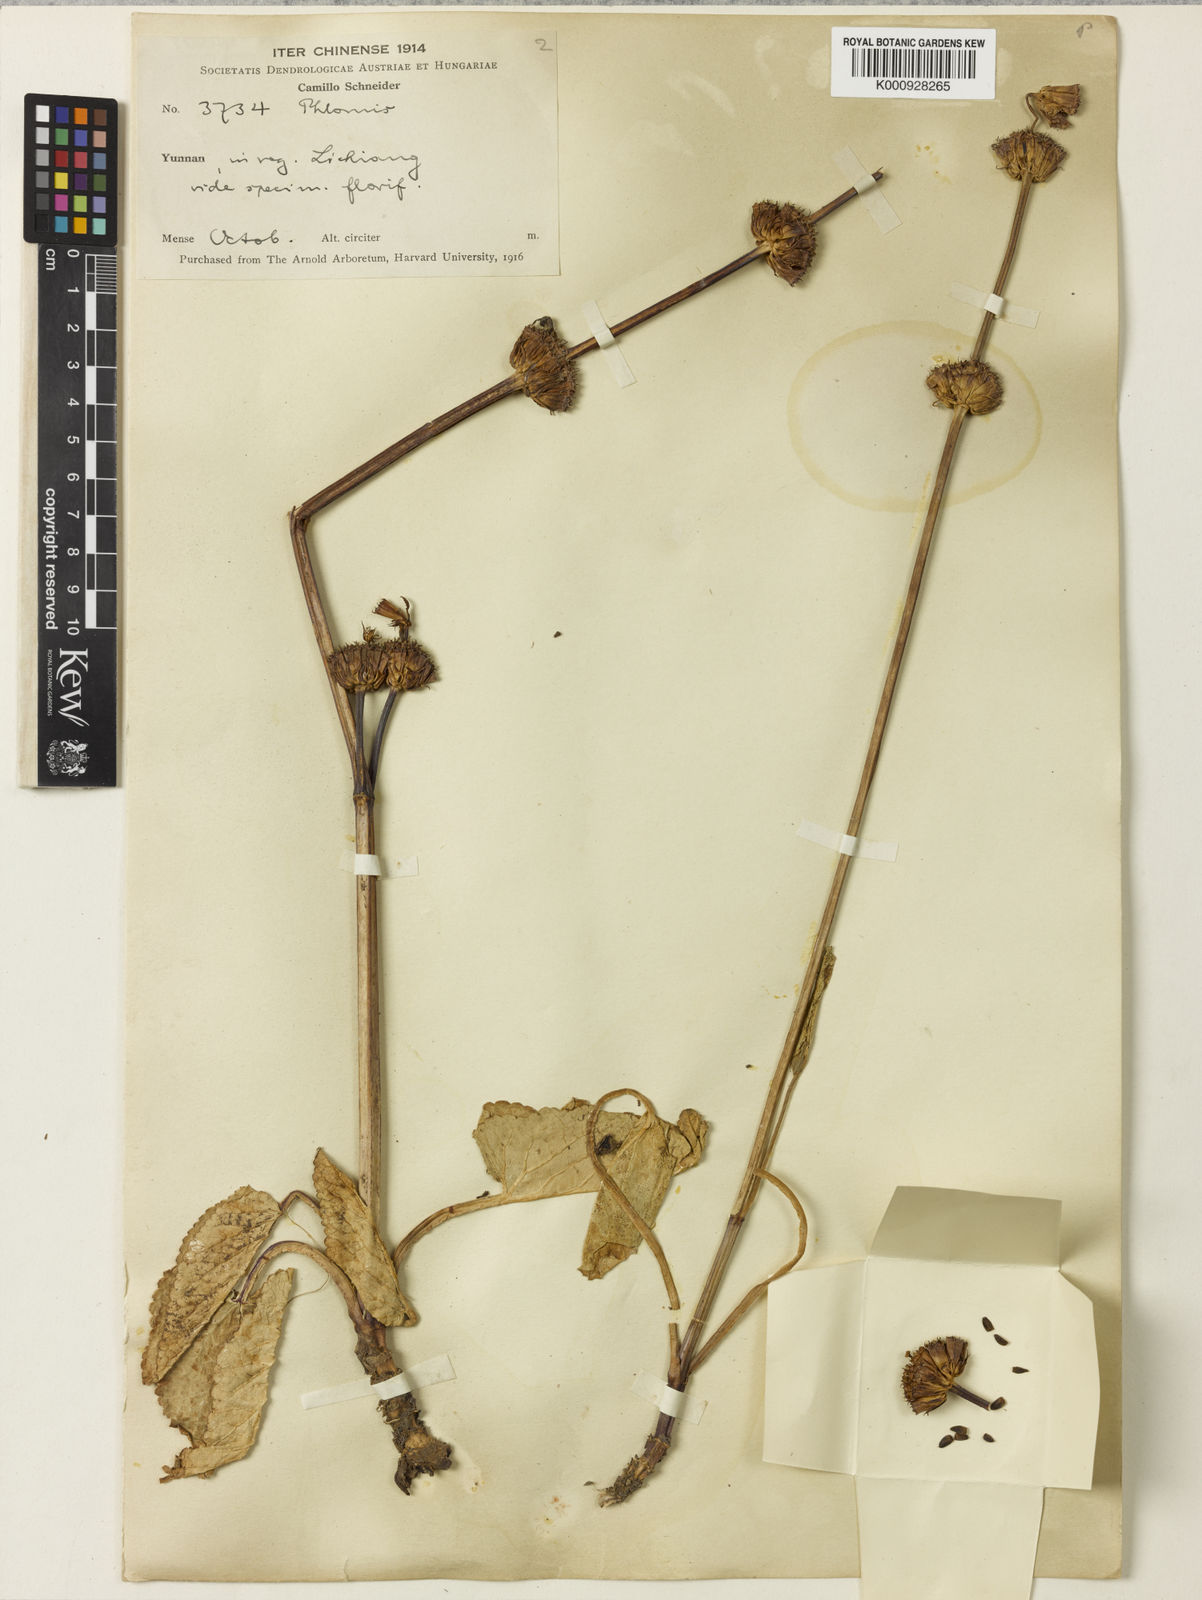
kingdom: Plantae
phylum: Tracheophyta
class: Magnoliopsida
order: Lamiales
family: Lamiaceae
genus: Phlomoides
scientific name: Phlomoides atropurpurea
